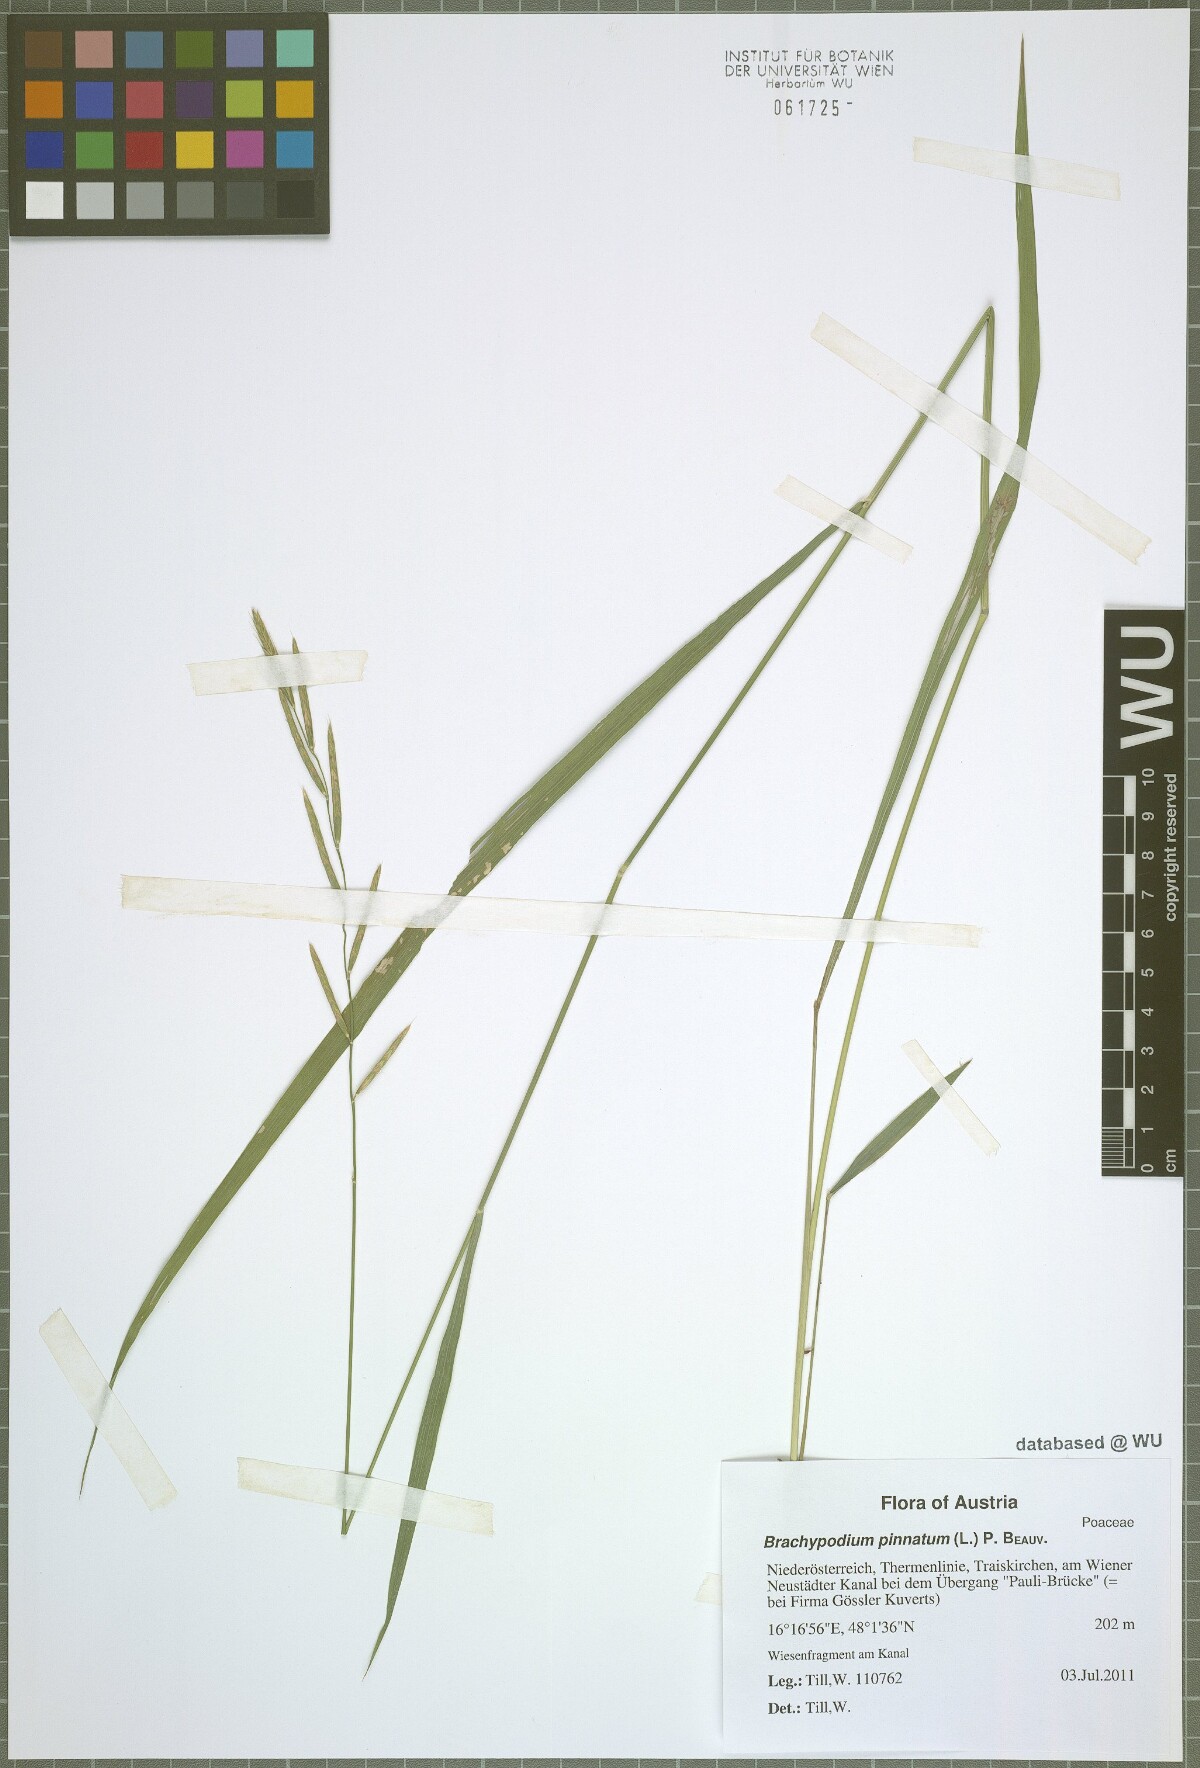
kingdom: Plantae
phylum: Tracheophyta
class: Liliopsida
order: Poales
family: Poaceae
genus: Brachypodium
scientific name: Brachypodium pinnatum
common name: Tor grass
